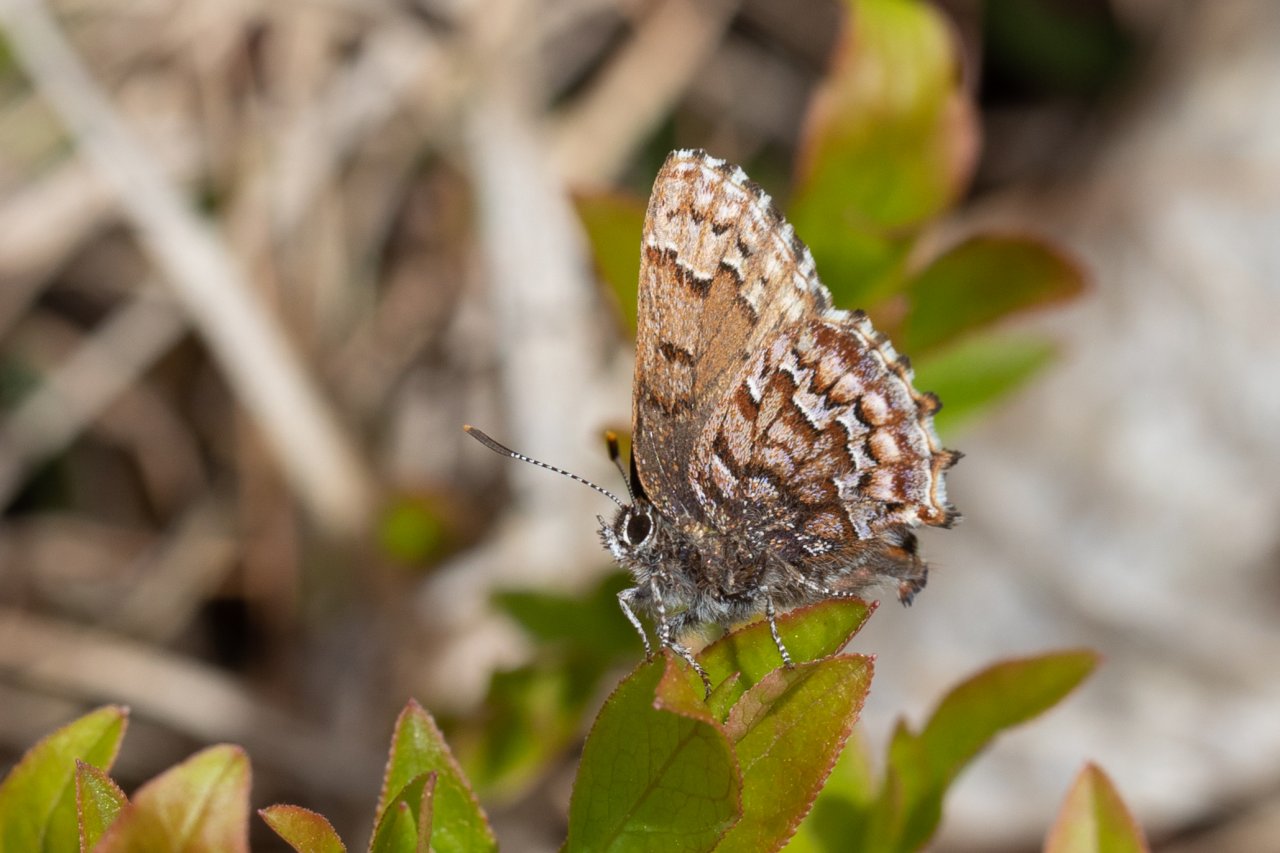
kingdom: Animalia
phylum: Arthropoda
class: Insecta
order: Lepidoptera
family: Lycaenidae
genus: Incisalia
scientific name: Incisalia niphon
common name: Eastern Pine Elfin
